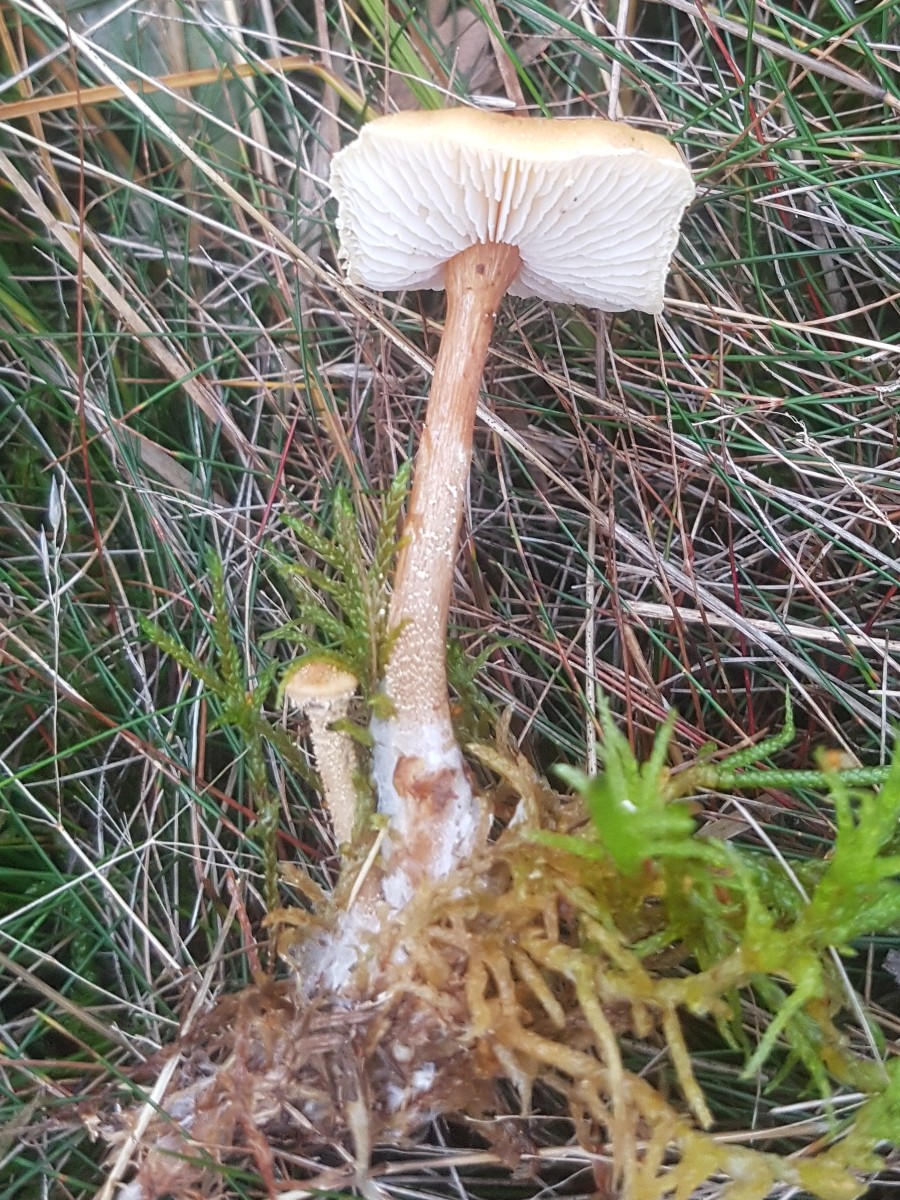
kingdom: Fungi
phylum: Basidiomycota
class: Agaricomycetes
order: Agaricales
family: Tricholomataceae
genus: Cystoderma
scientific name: Cystoderma amianthinum
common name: okkergul grynhat
